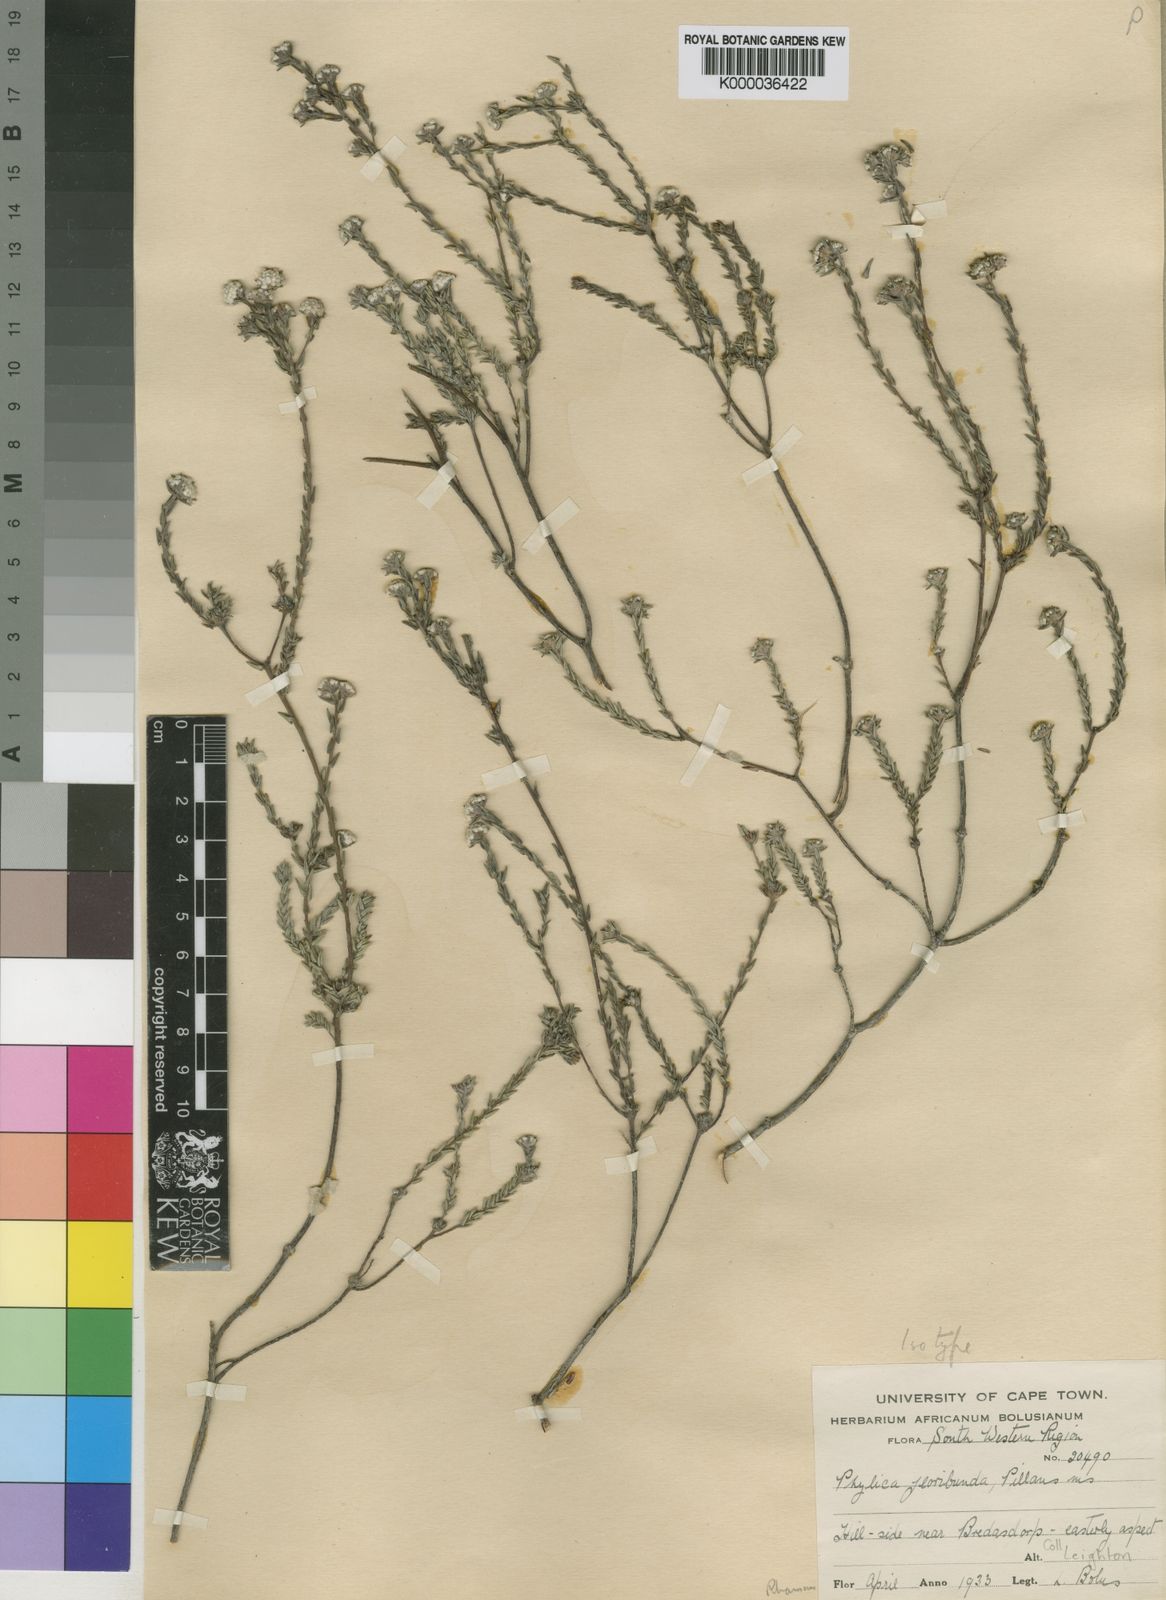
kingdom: Plantae
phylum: Tracheophyta
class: Magnoliopsida
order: Rosales
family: Rhamnaceae
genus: Phylica
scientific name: Phylica floribunda
